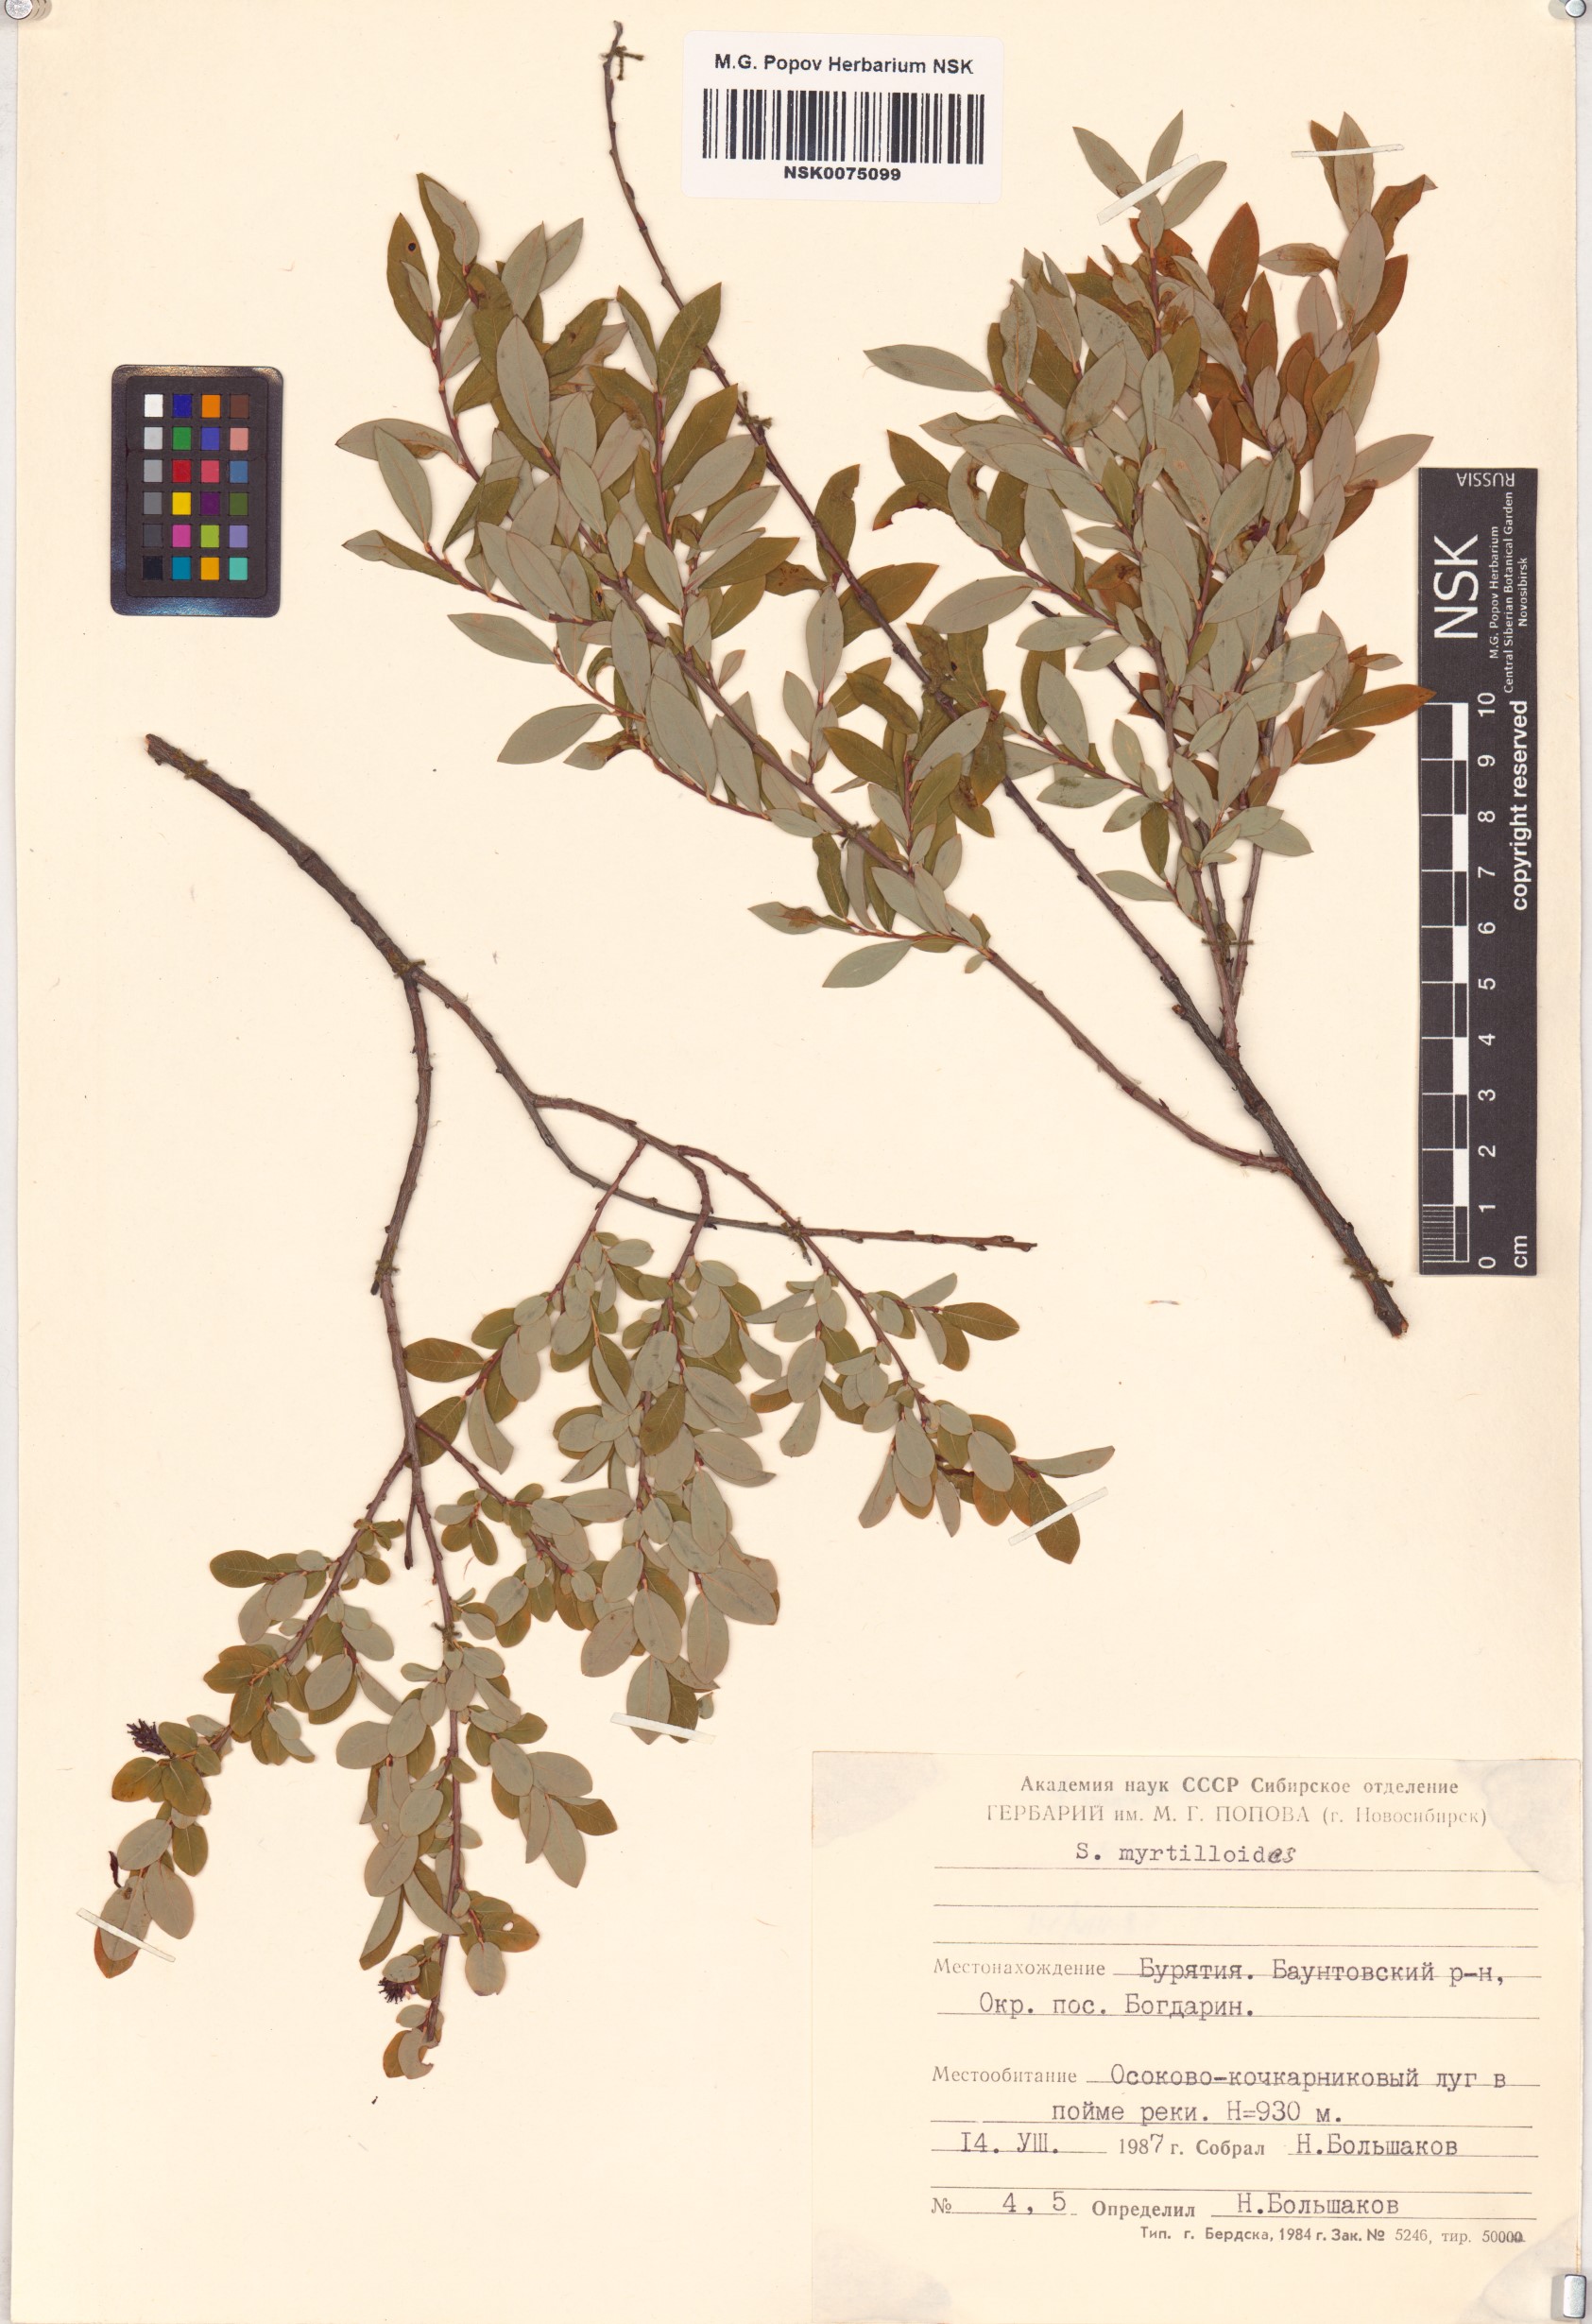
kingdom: Plantae
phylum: Tracheophyta
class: Magnoliopsida
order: Malpighiales
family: Salicaceae
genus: Salix
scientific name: Salix myrtilloides
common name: Myrtle-leaved willow
